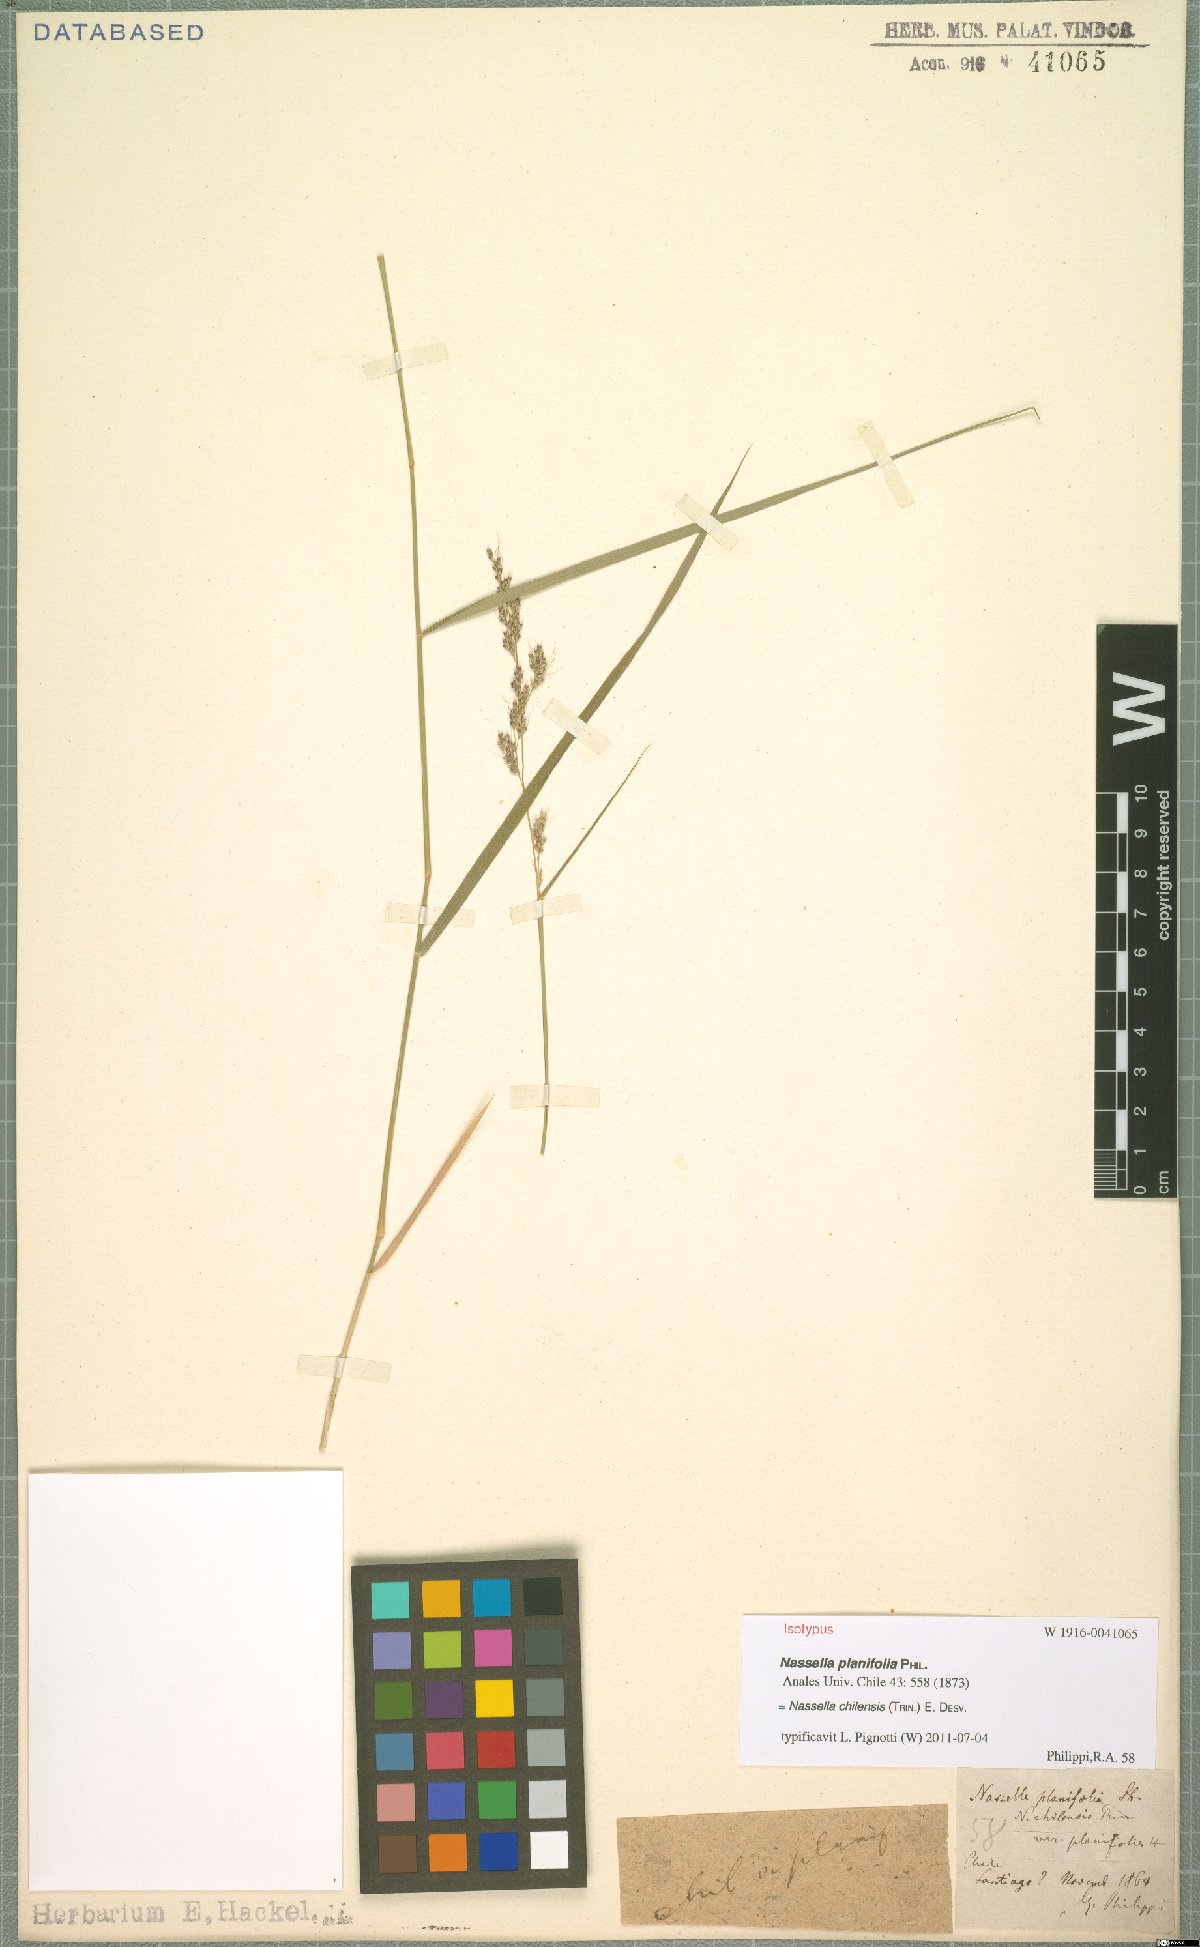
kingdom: Plantae
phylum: Tracheophyta
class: Liliopsida
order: Poales
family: Poaceae
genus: Nassella
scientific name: Nassella chilensis
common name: Chilean needlegrass
